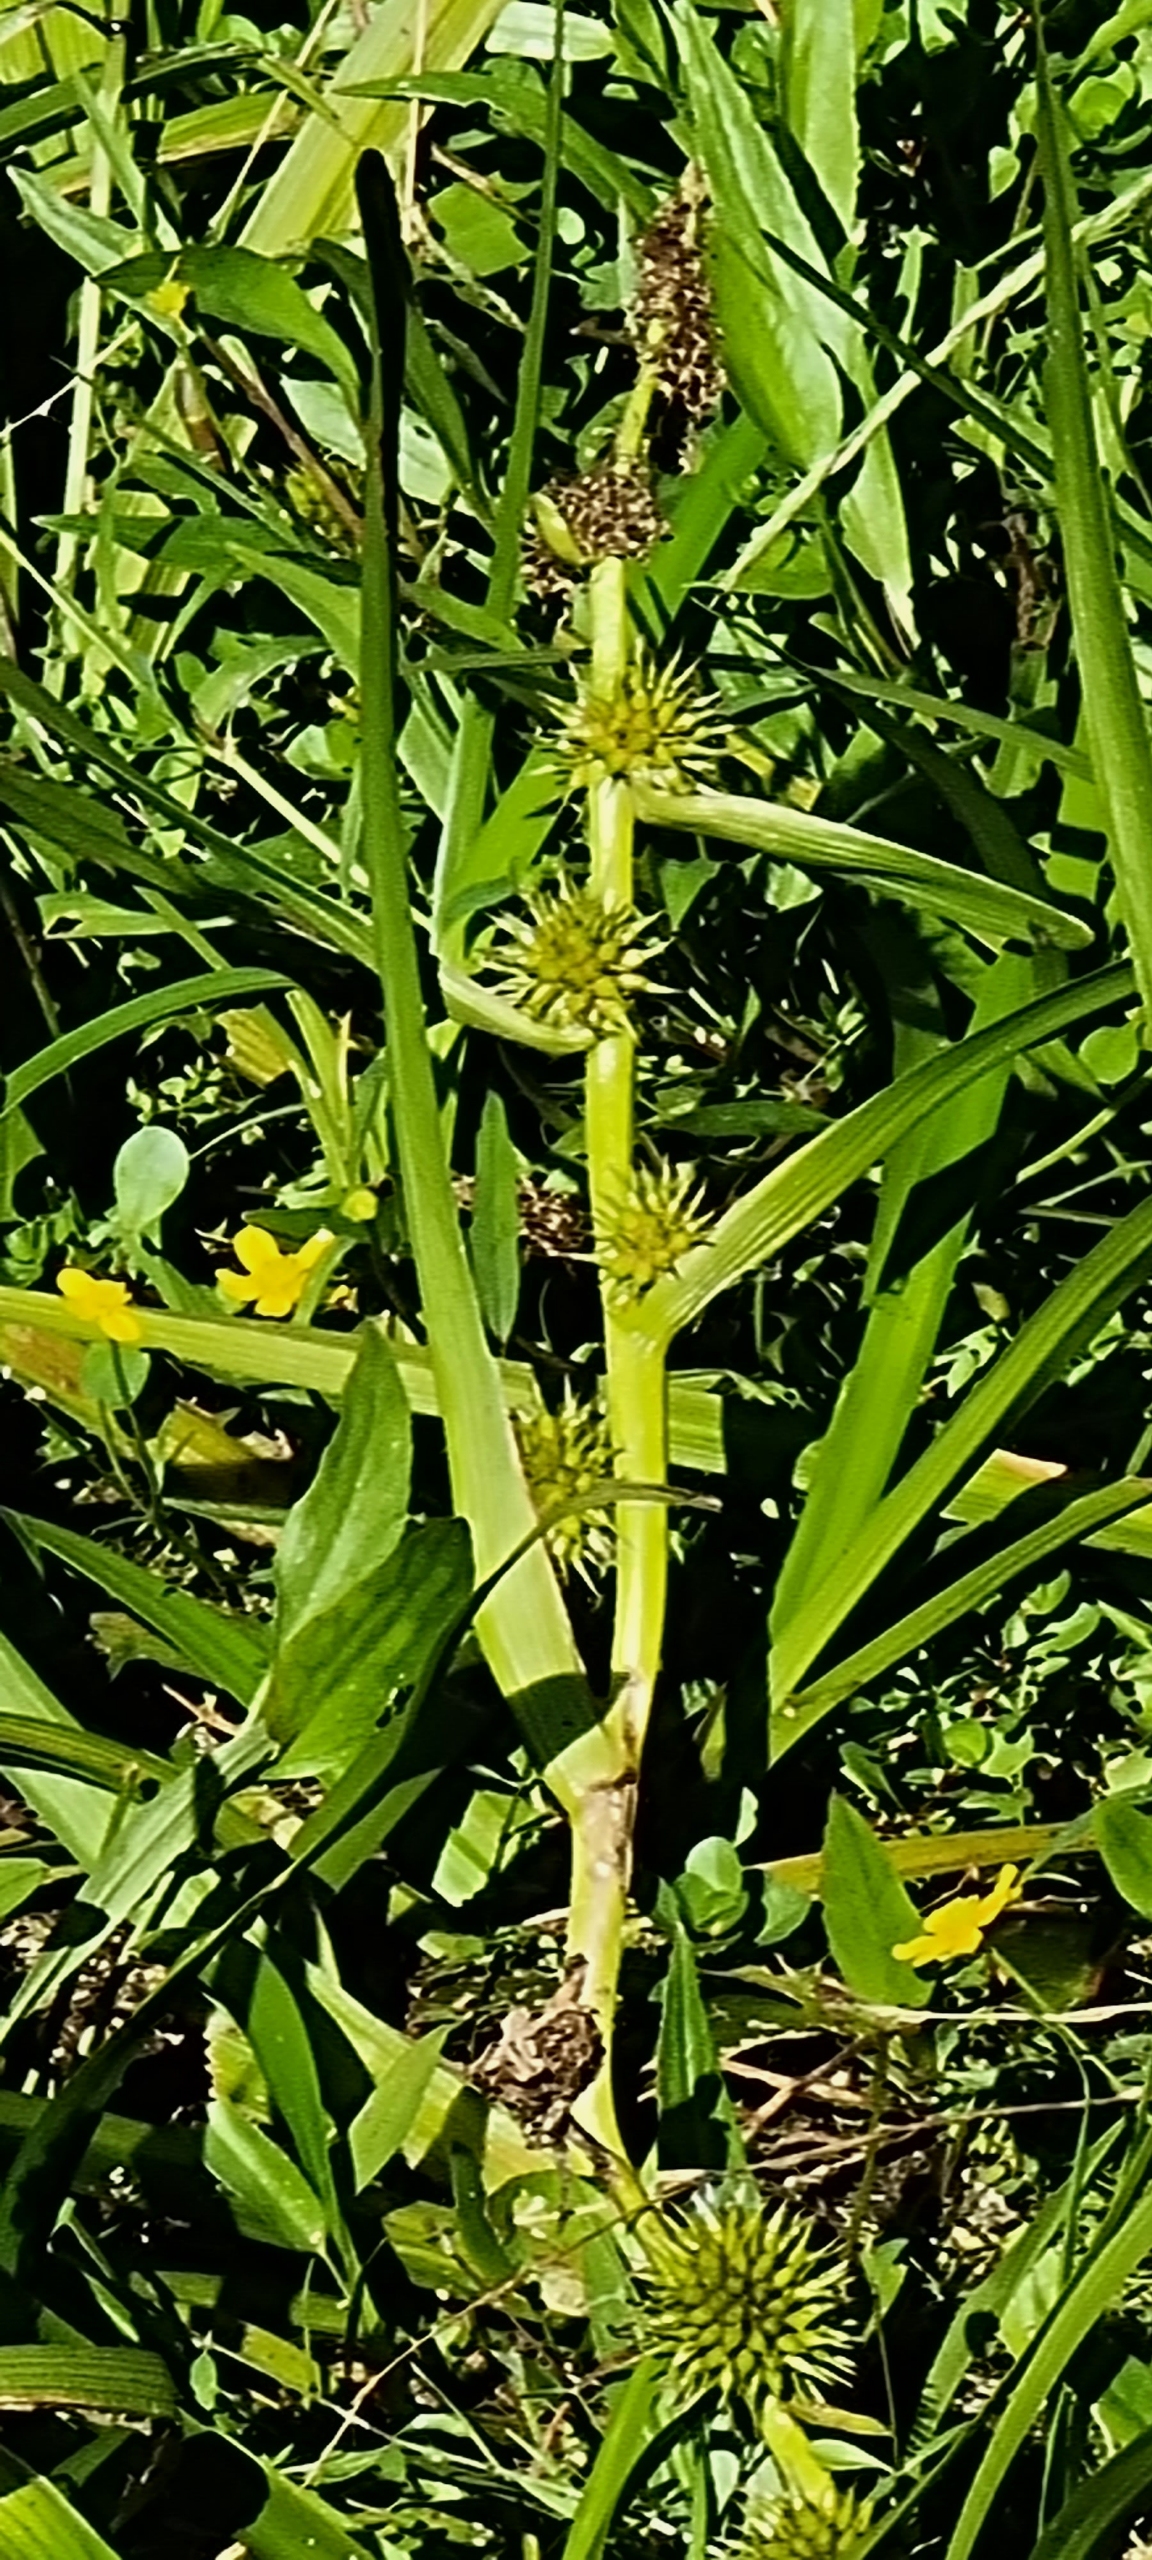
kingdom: Plantae
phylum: Tracheophyta
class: Liliopsida
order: Poales
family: Typhaceae
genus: Sparganium
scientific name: Sparganium emersum
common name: Enkelt pindsvineknop
